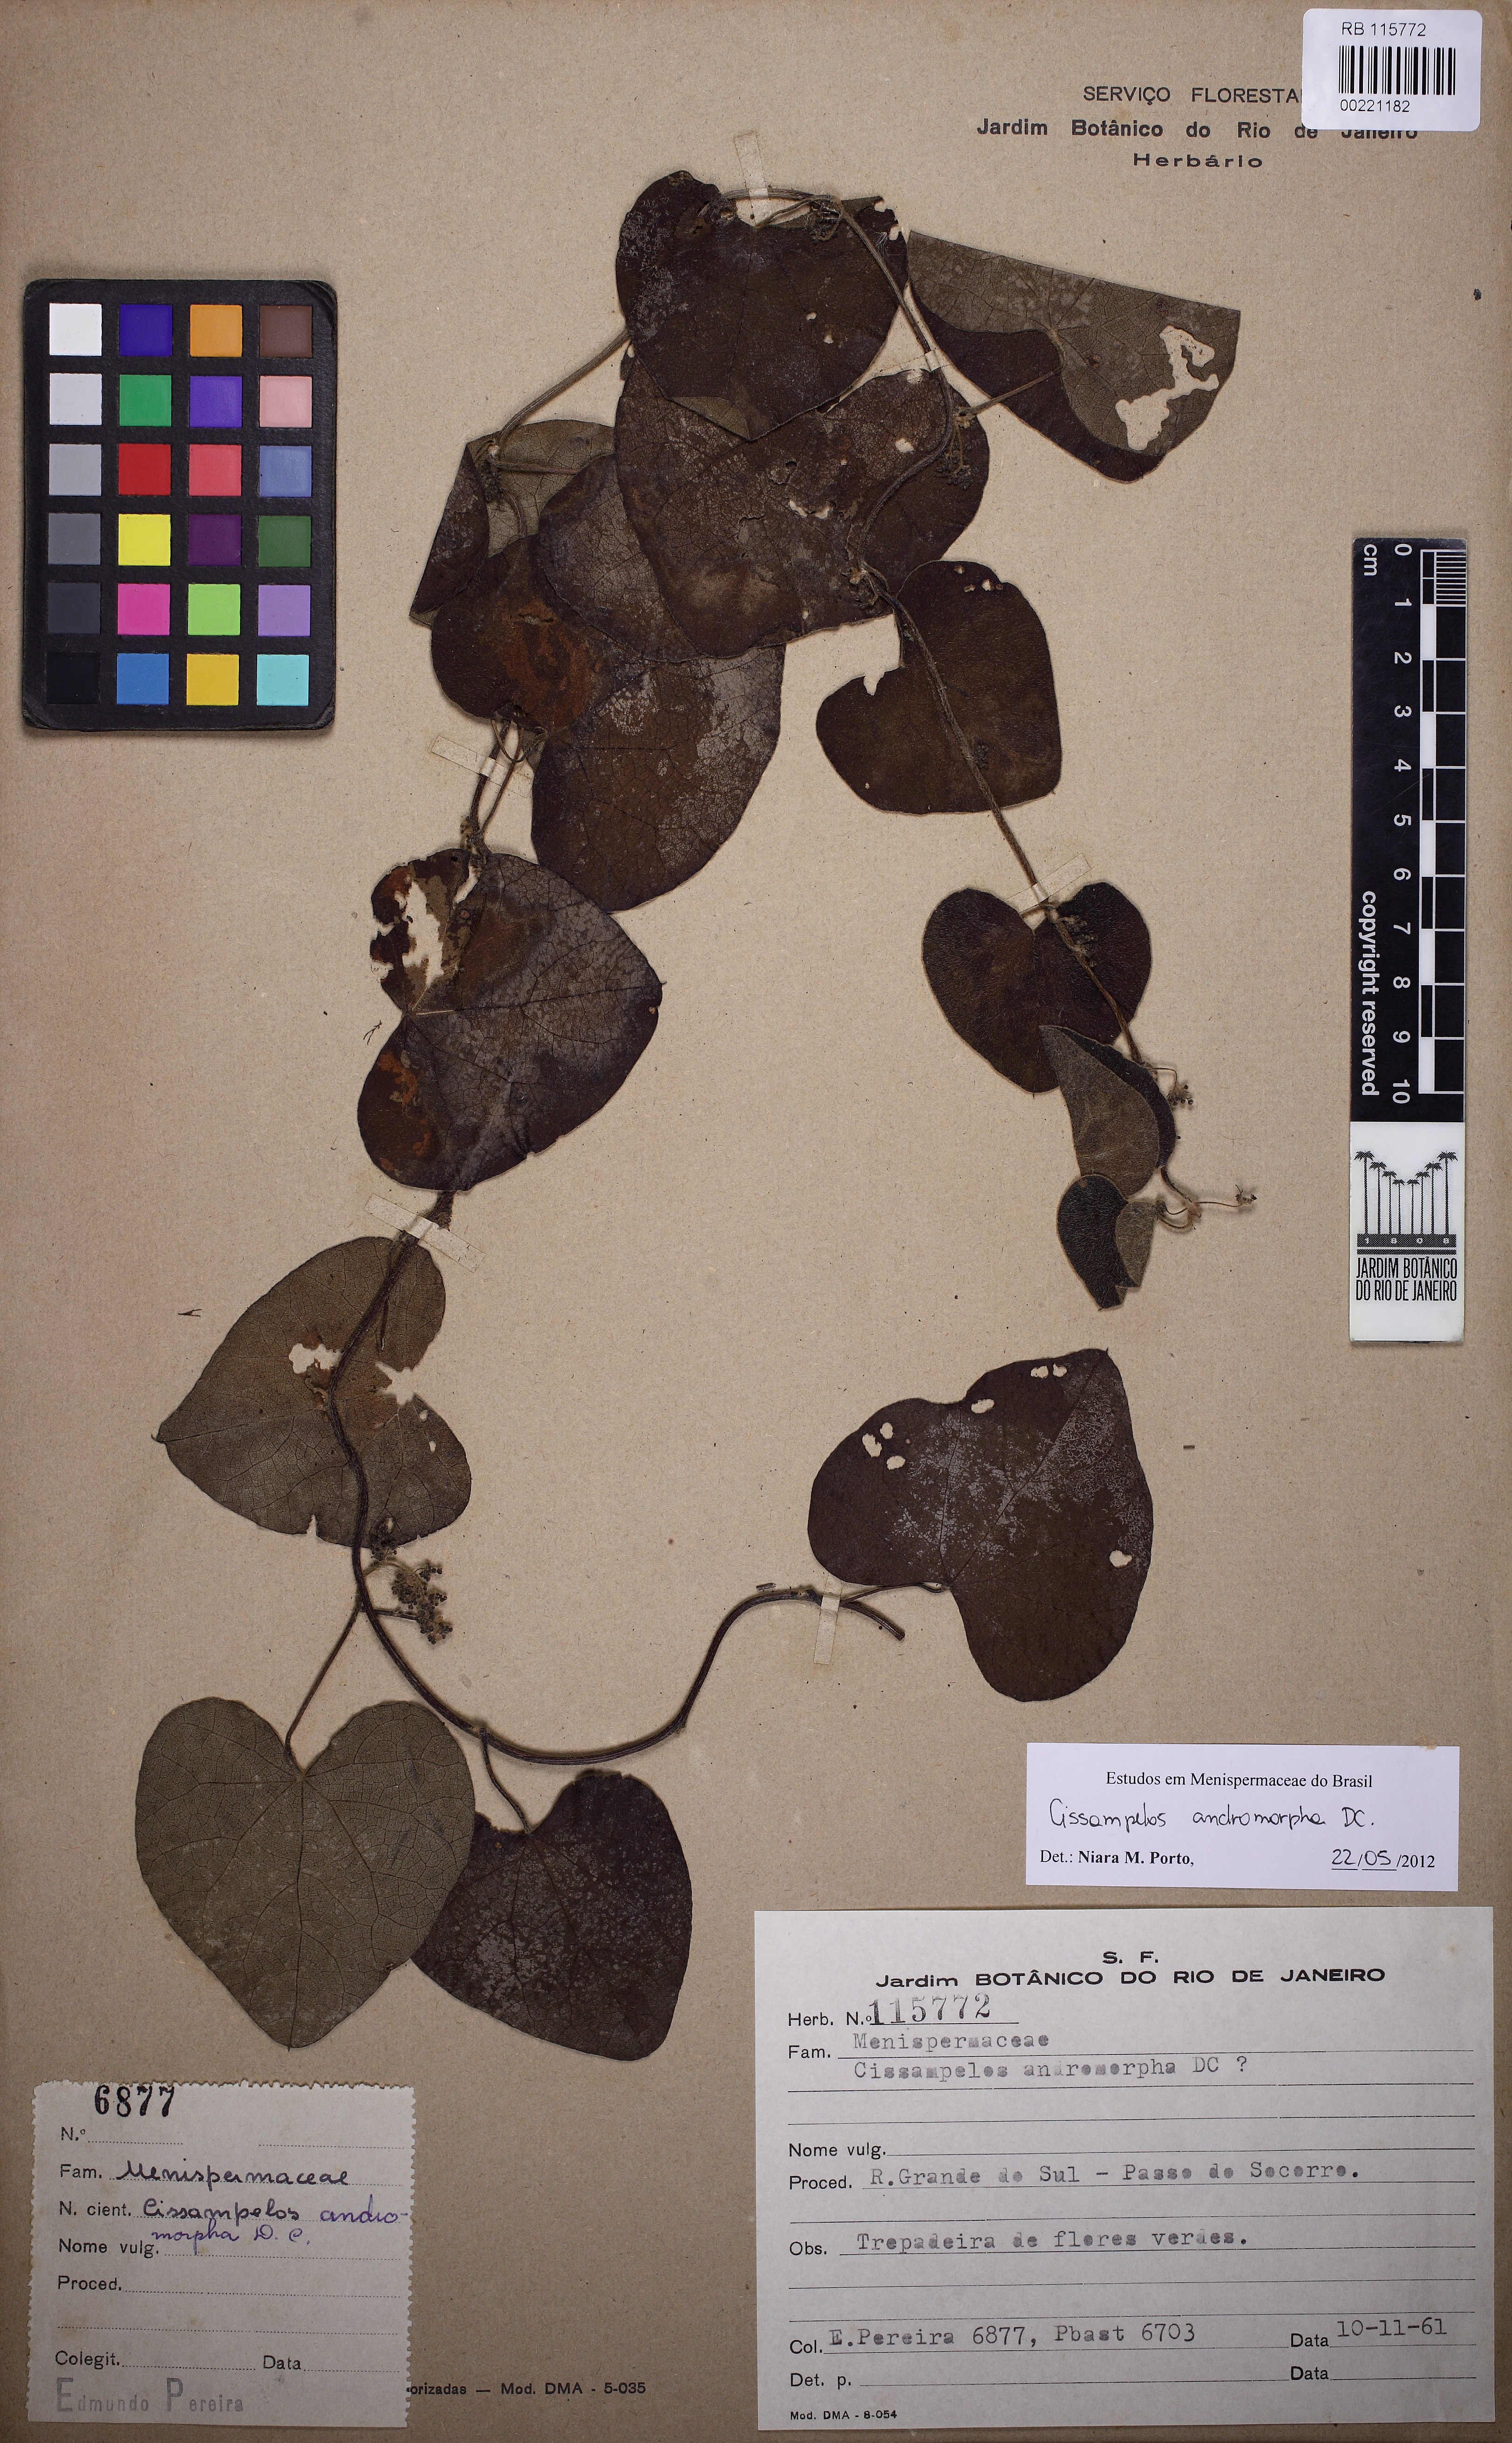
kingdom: Plantae
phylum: Tracheophyta
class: Magnoliopsida
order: Ranunculales
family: Menispermaceae
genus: Cissampelos
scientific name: Cissampelos andromorpha
